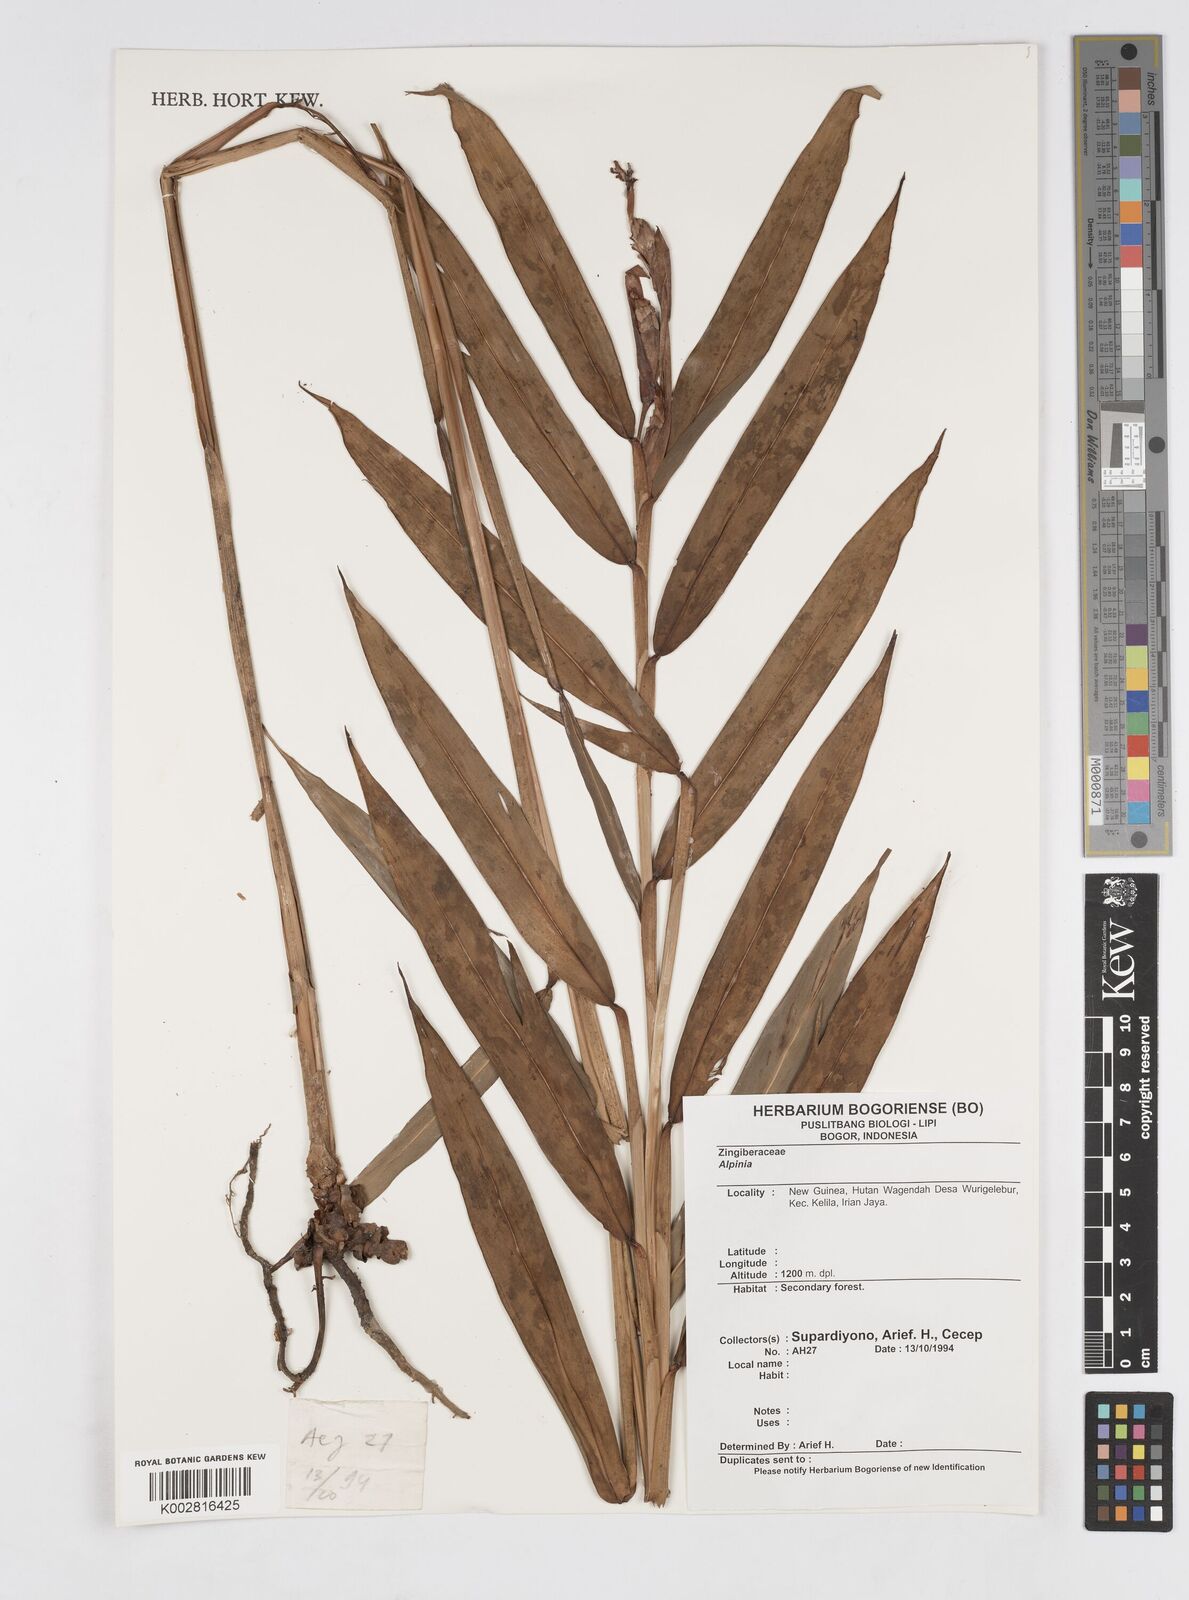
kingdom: Plantae
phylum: Tracheophyta
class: Liliopsida
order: Zingiberales
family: Zingiberaceae
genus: Alpinia
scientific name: Alpinia
